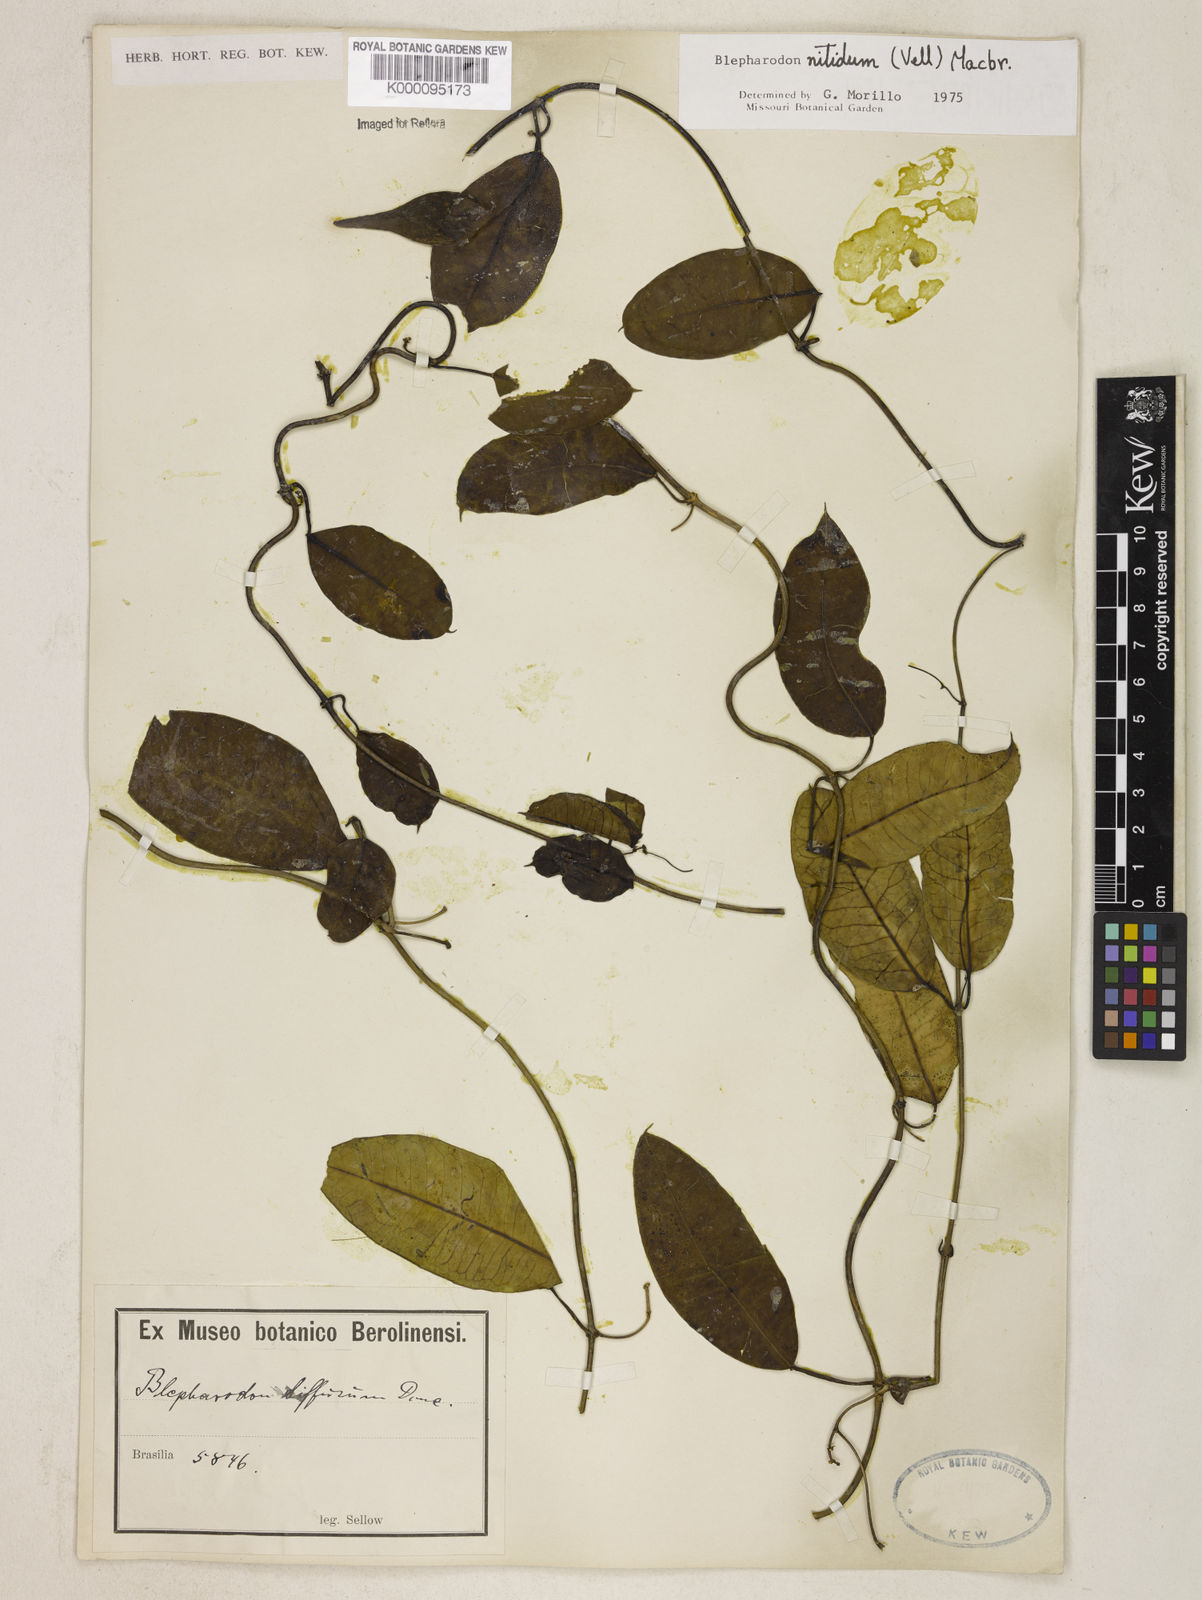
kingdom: Plantae
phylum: Tracheophyta
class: Magnoliopsida
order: Gentianales
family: Apocynaceae
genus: Blepharodon
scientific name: Blepharodon pictum
